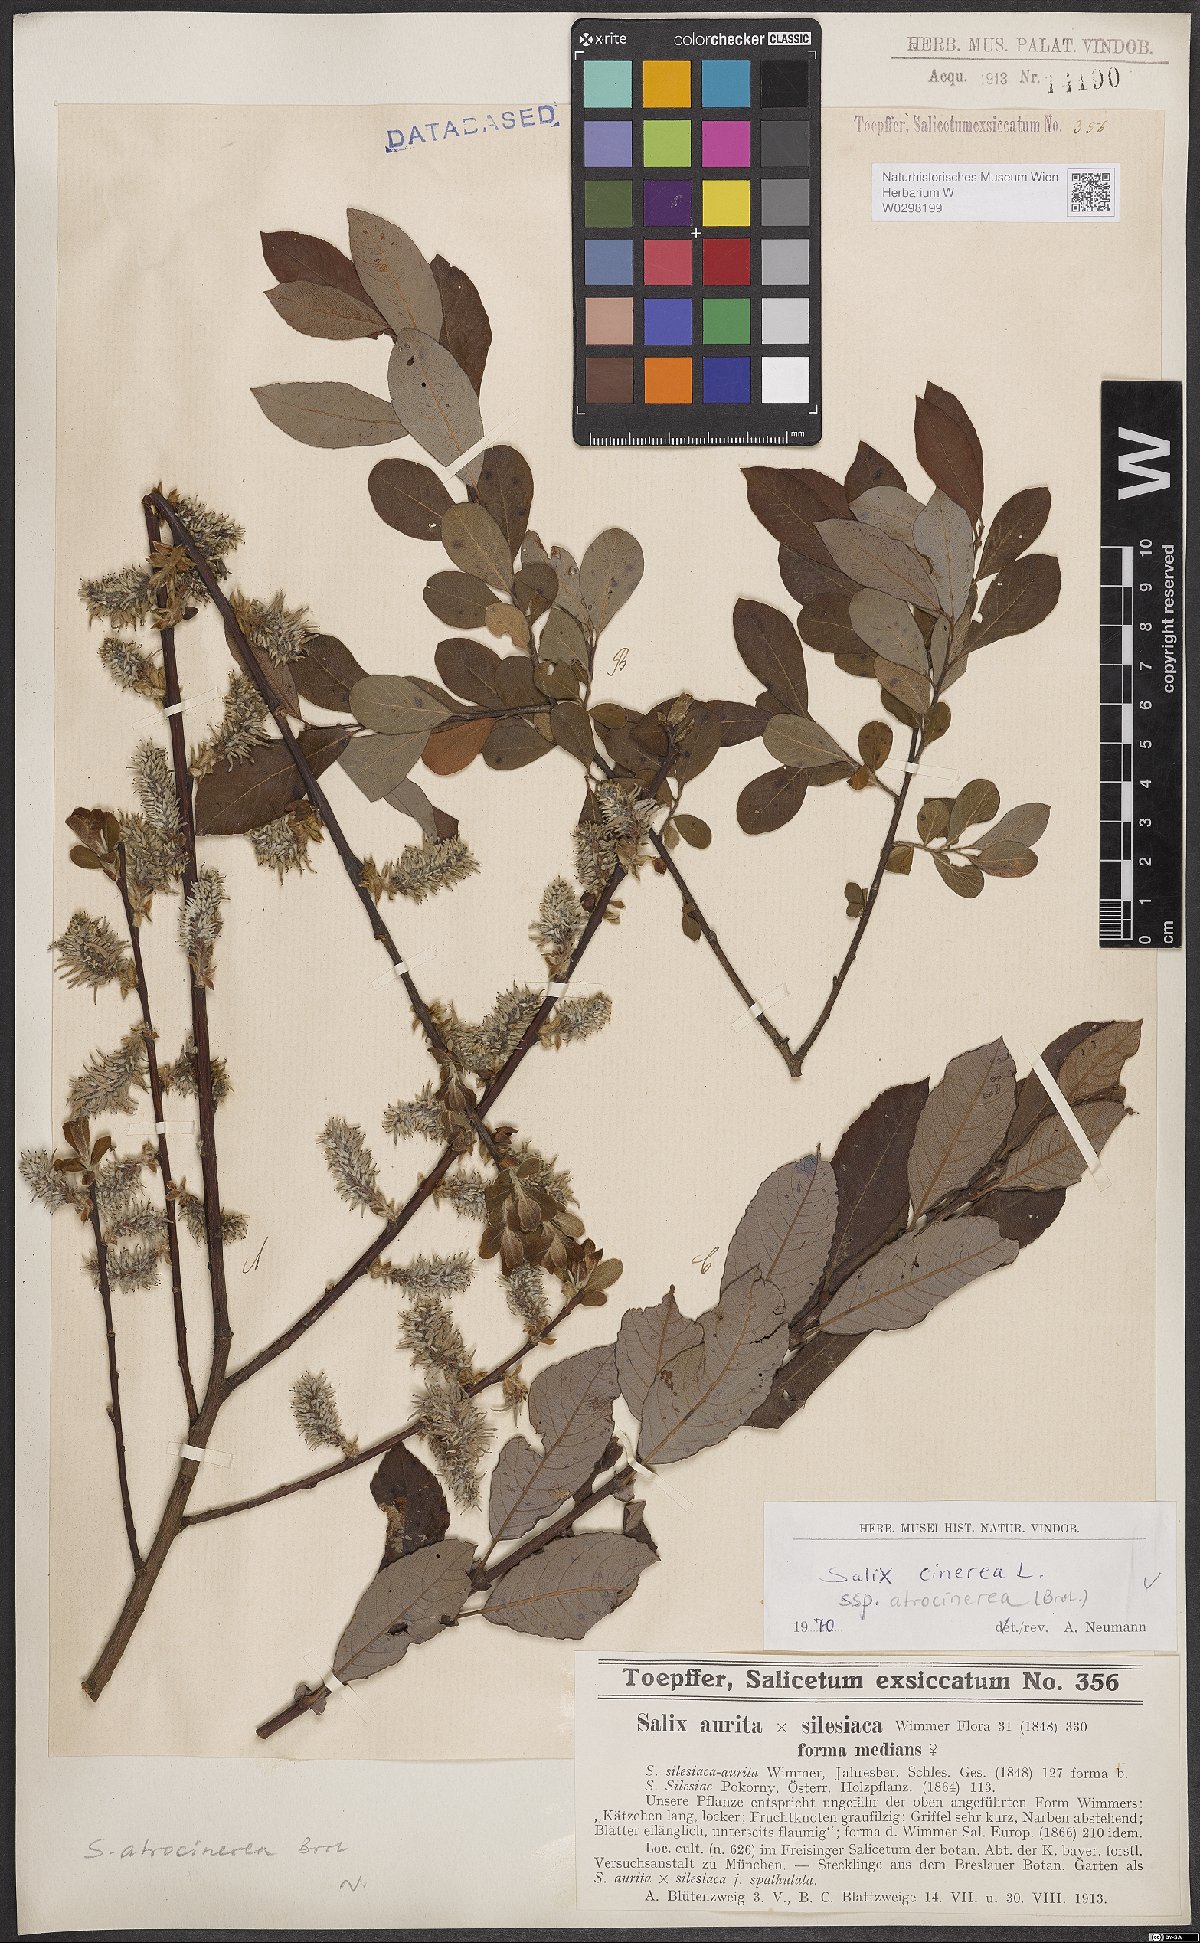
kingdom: Plantae
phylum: Tracheophyta
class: Magnoliopsida
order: Malpighiales
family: Salicaceae
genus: Salix
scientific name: Salix atrocinerea
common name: Rusty willow
